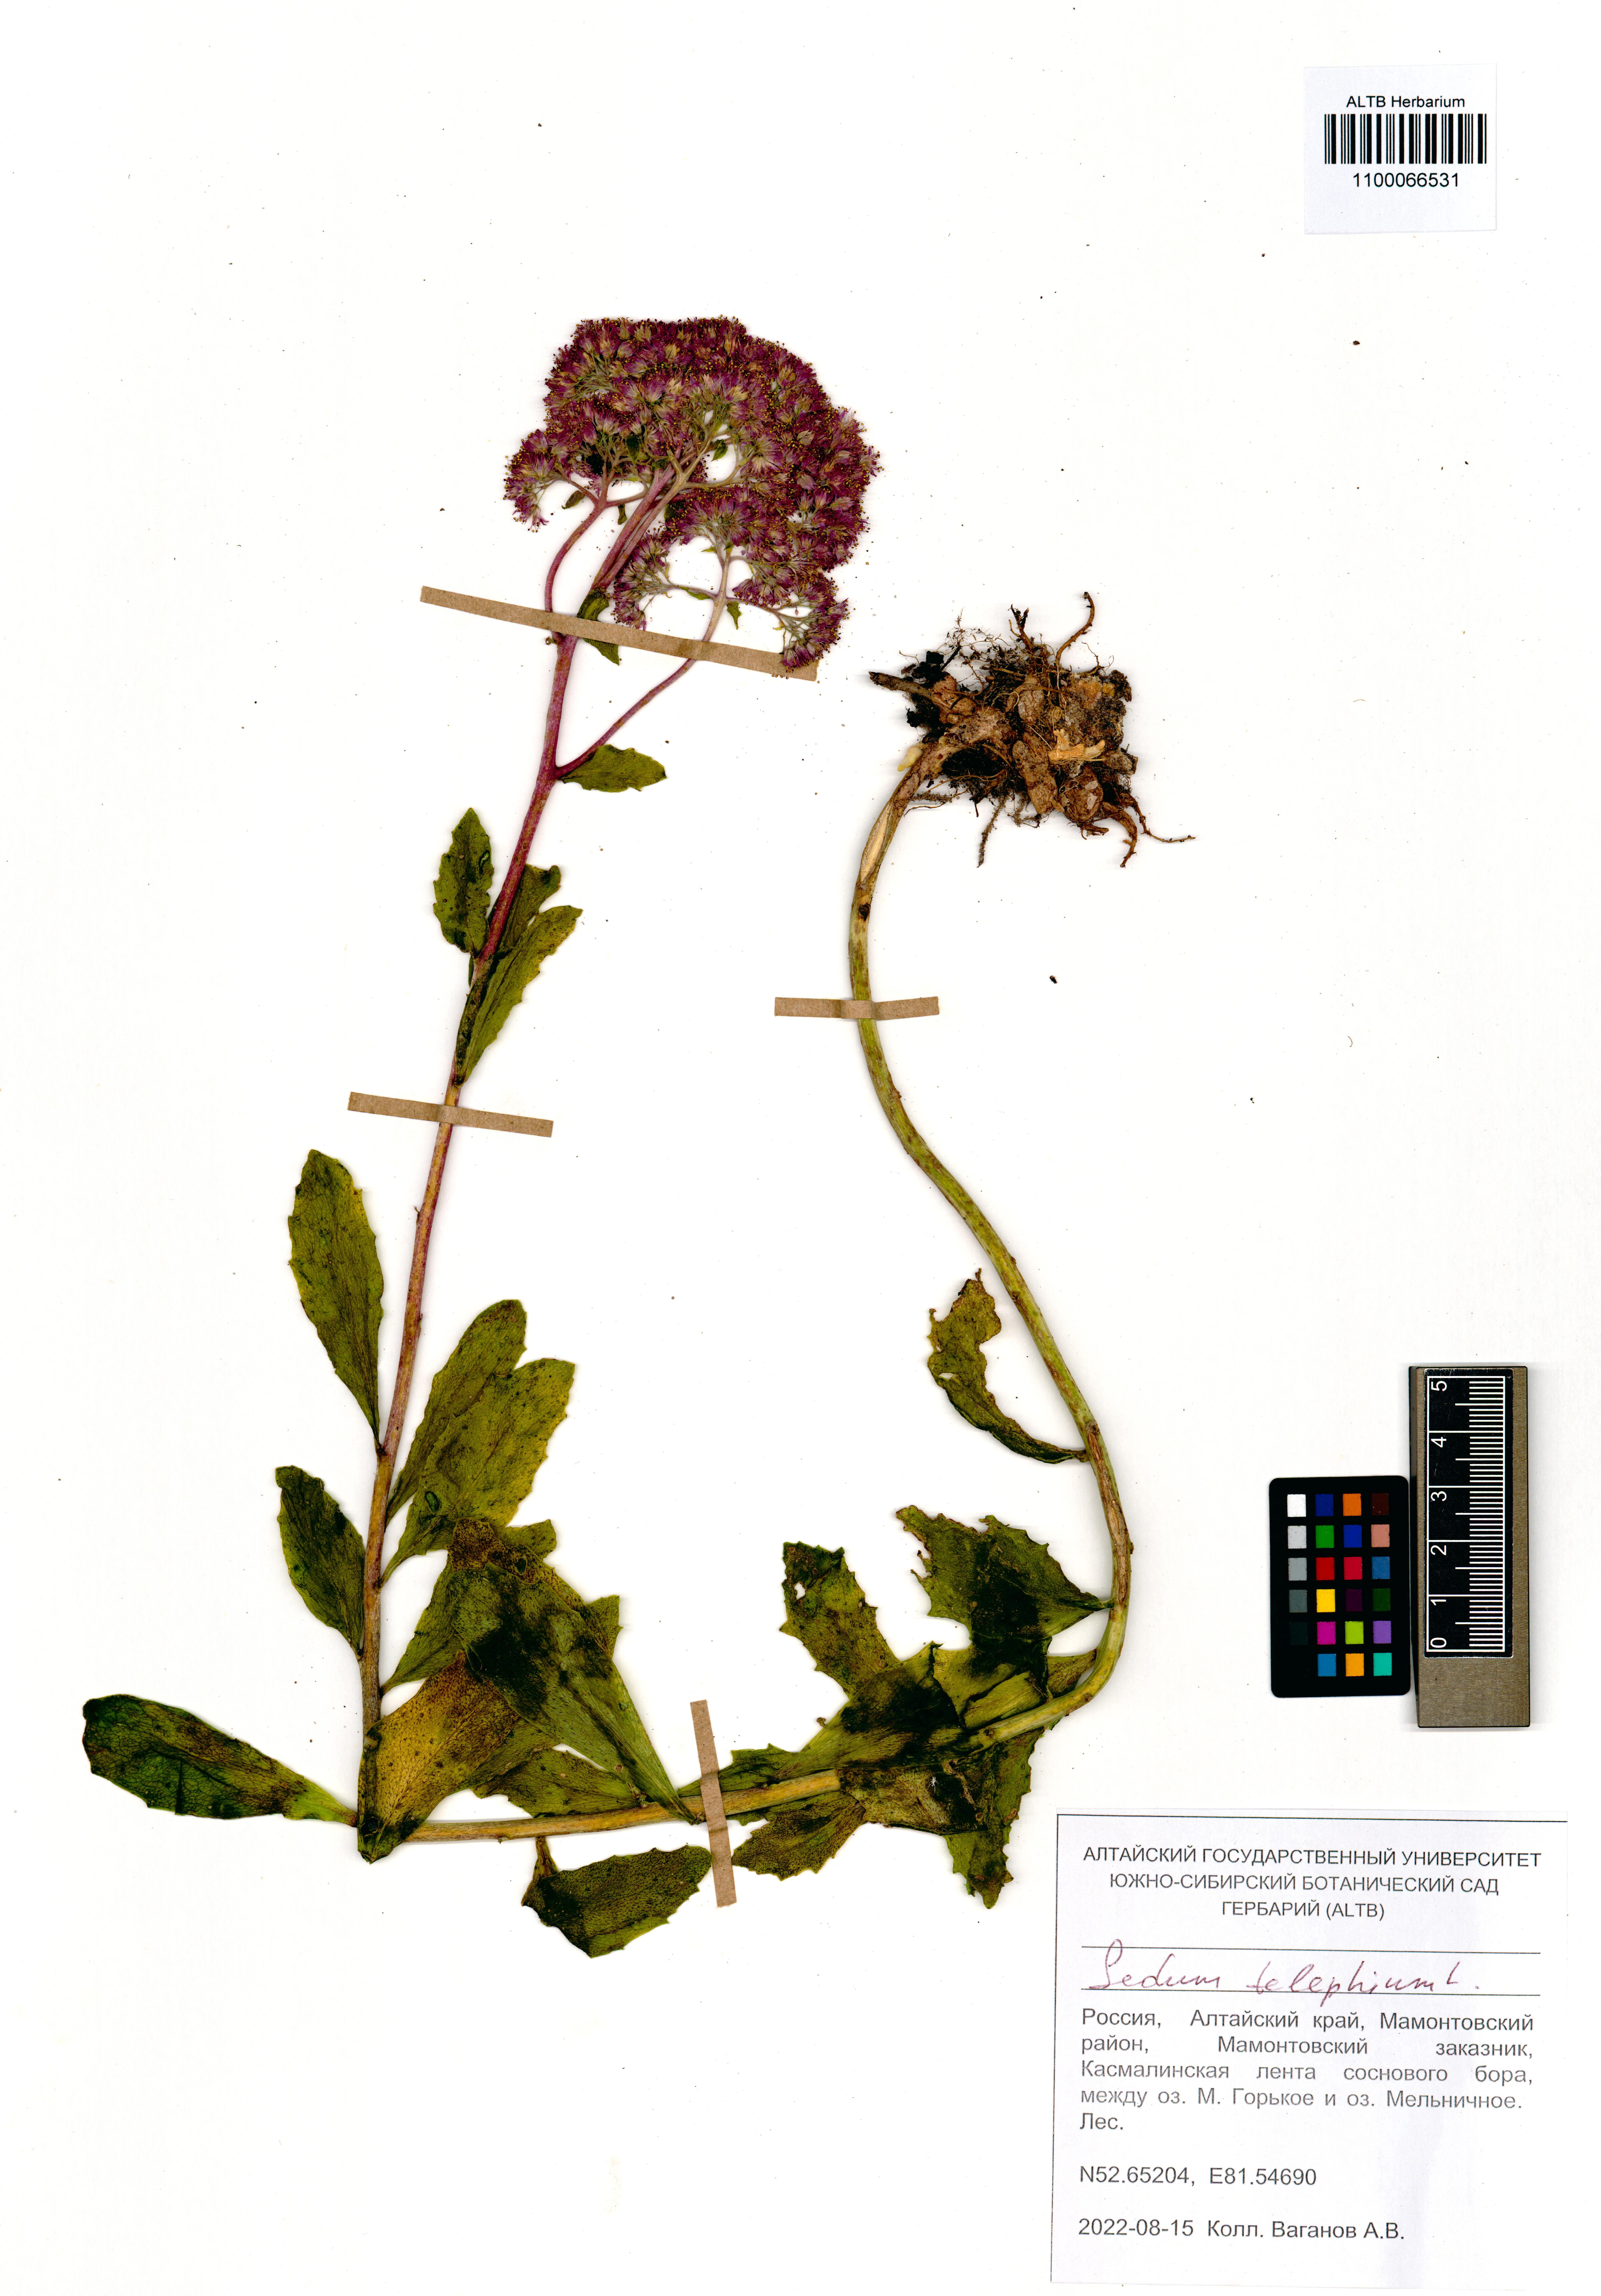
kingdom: Plantae
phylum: Tracheophyta
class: Magnoliopsida
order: Saxifragales
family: Crassulaceae
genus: Hylotelephium
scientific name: Hylotelephium telephium
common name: Live-forever
